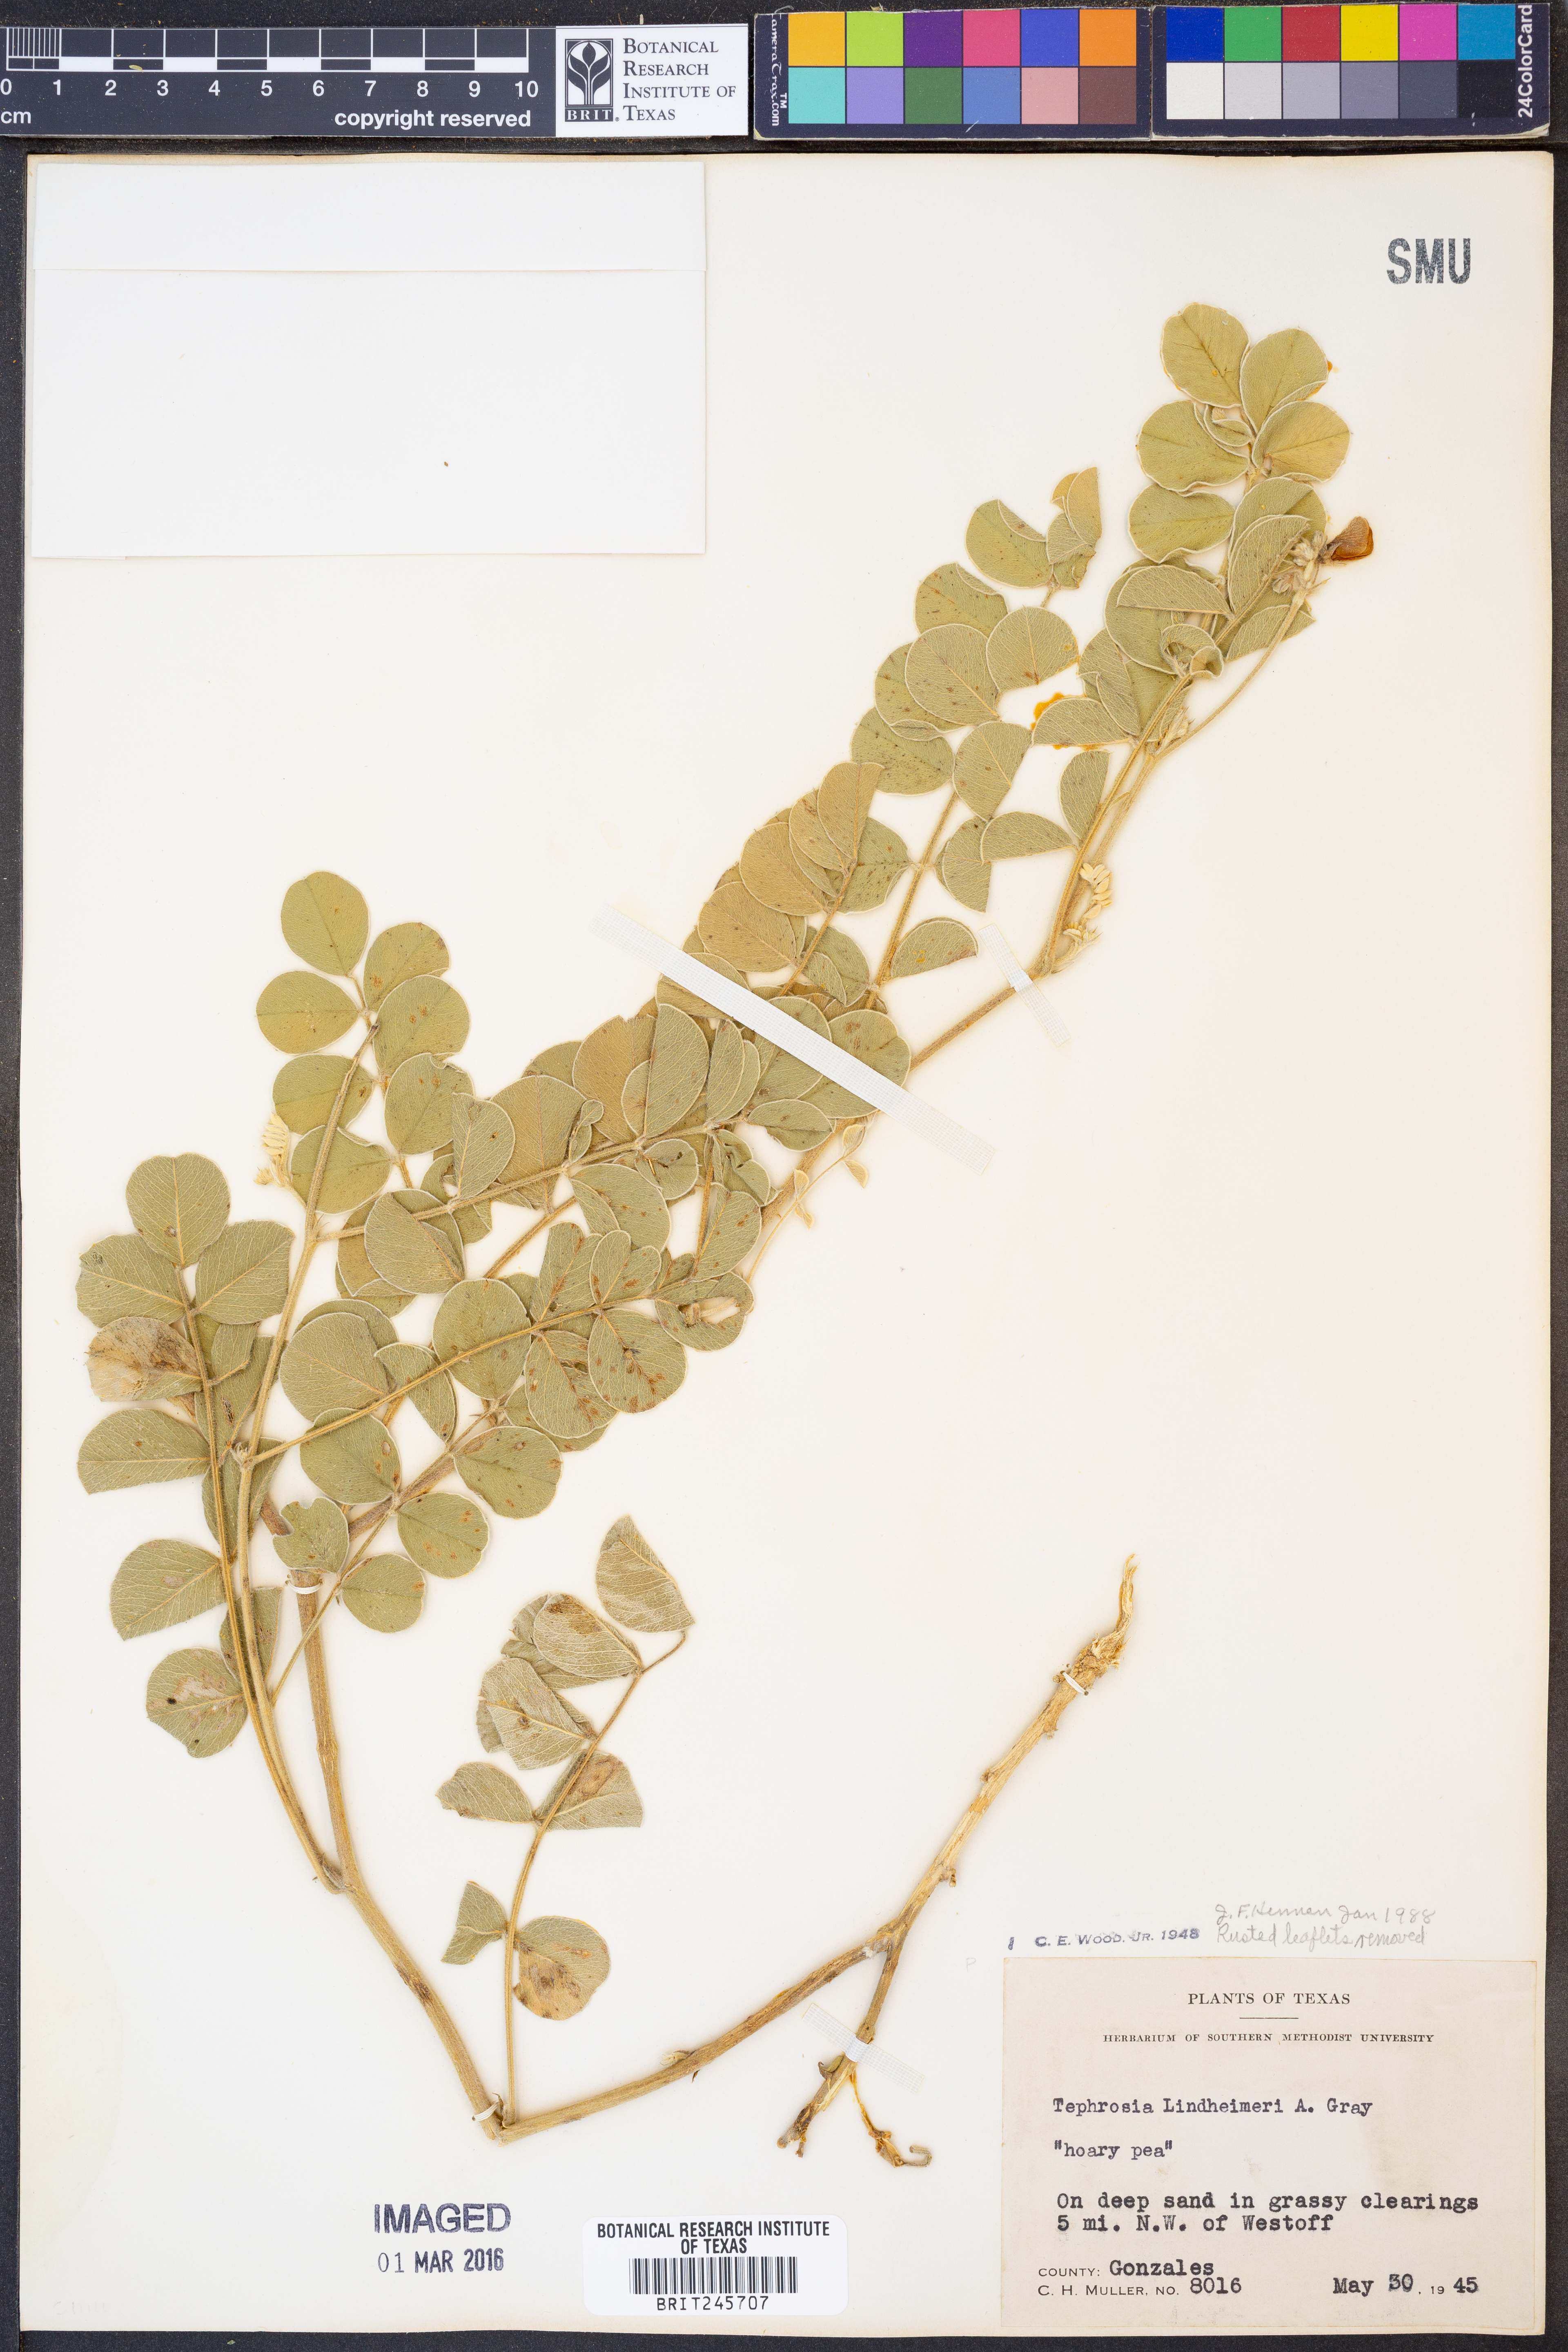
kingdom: Plantae
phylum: Tracheophyta
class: Magnoliopsida
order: Fabales
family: Fabaceae
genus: Tephrosia
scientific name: Tephrosia lindheimeri
